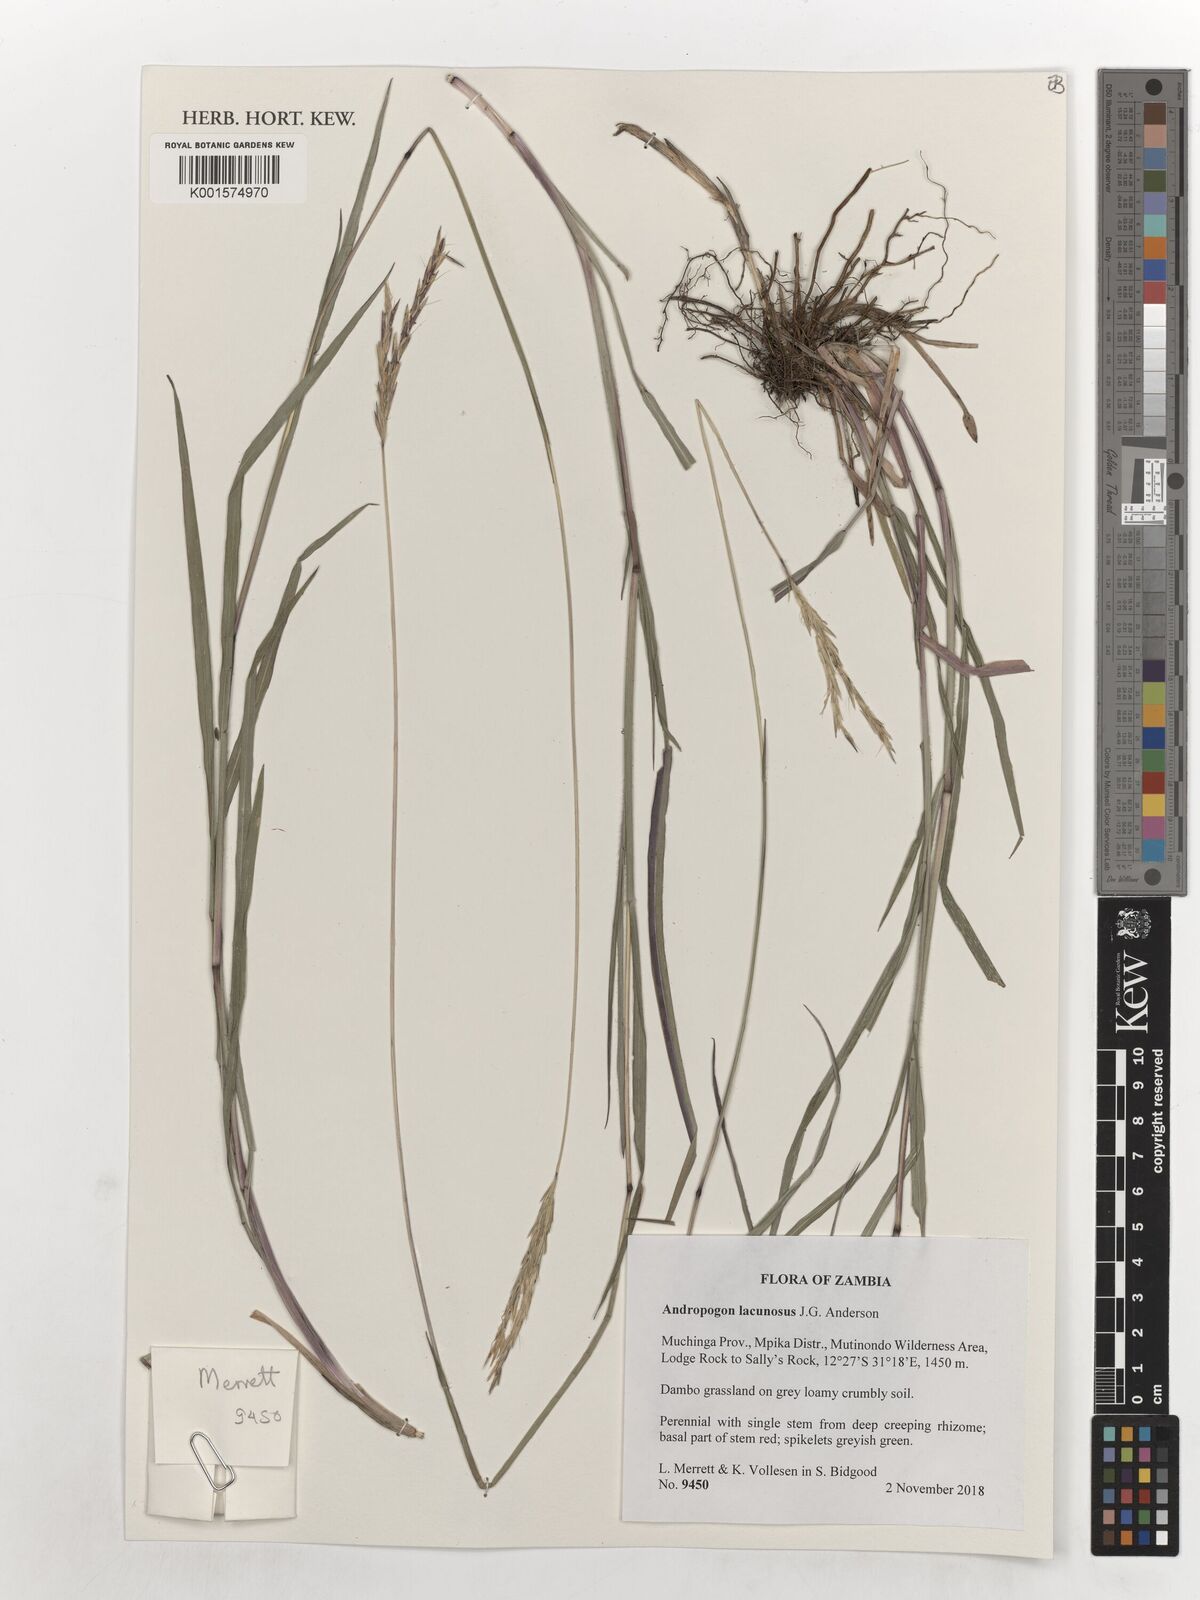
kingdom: Plantae
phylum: Tracheophyta
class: Liliopsida
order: Poales
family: Poaceae
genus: Andropogon
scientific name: Andropogon lacunosus
